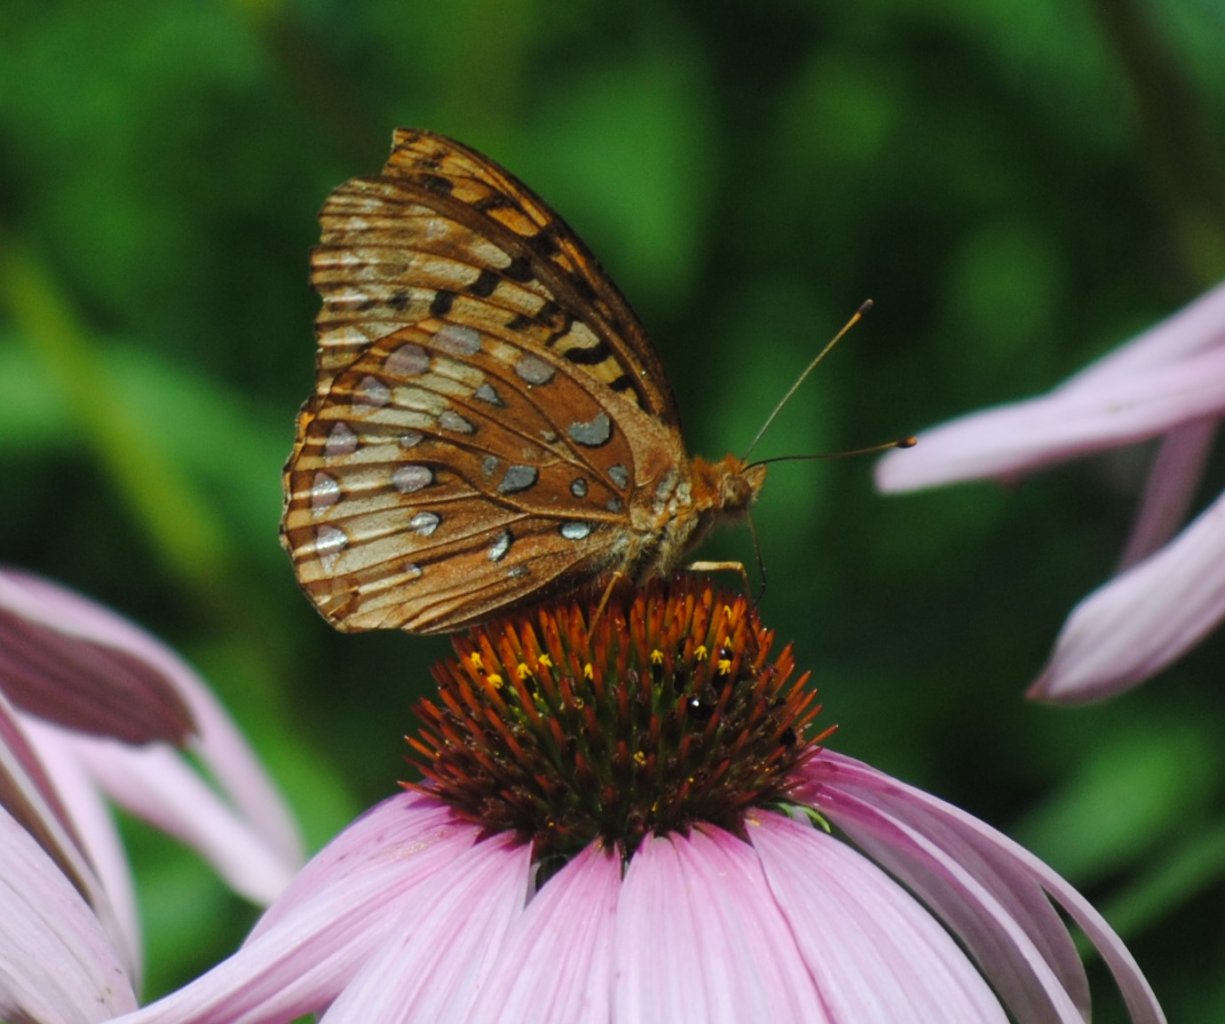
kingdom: Animalia
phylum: Arthropoda
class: Insecta
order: Lepidoptera
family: Nymphalidae
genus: Speyeria
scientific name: Speyeria cybele
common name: Great Spangled Fritillary
